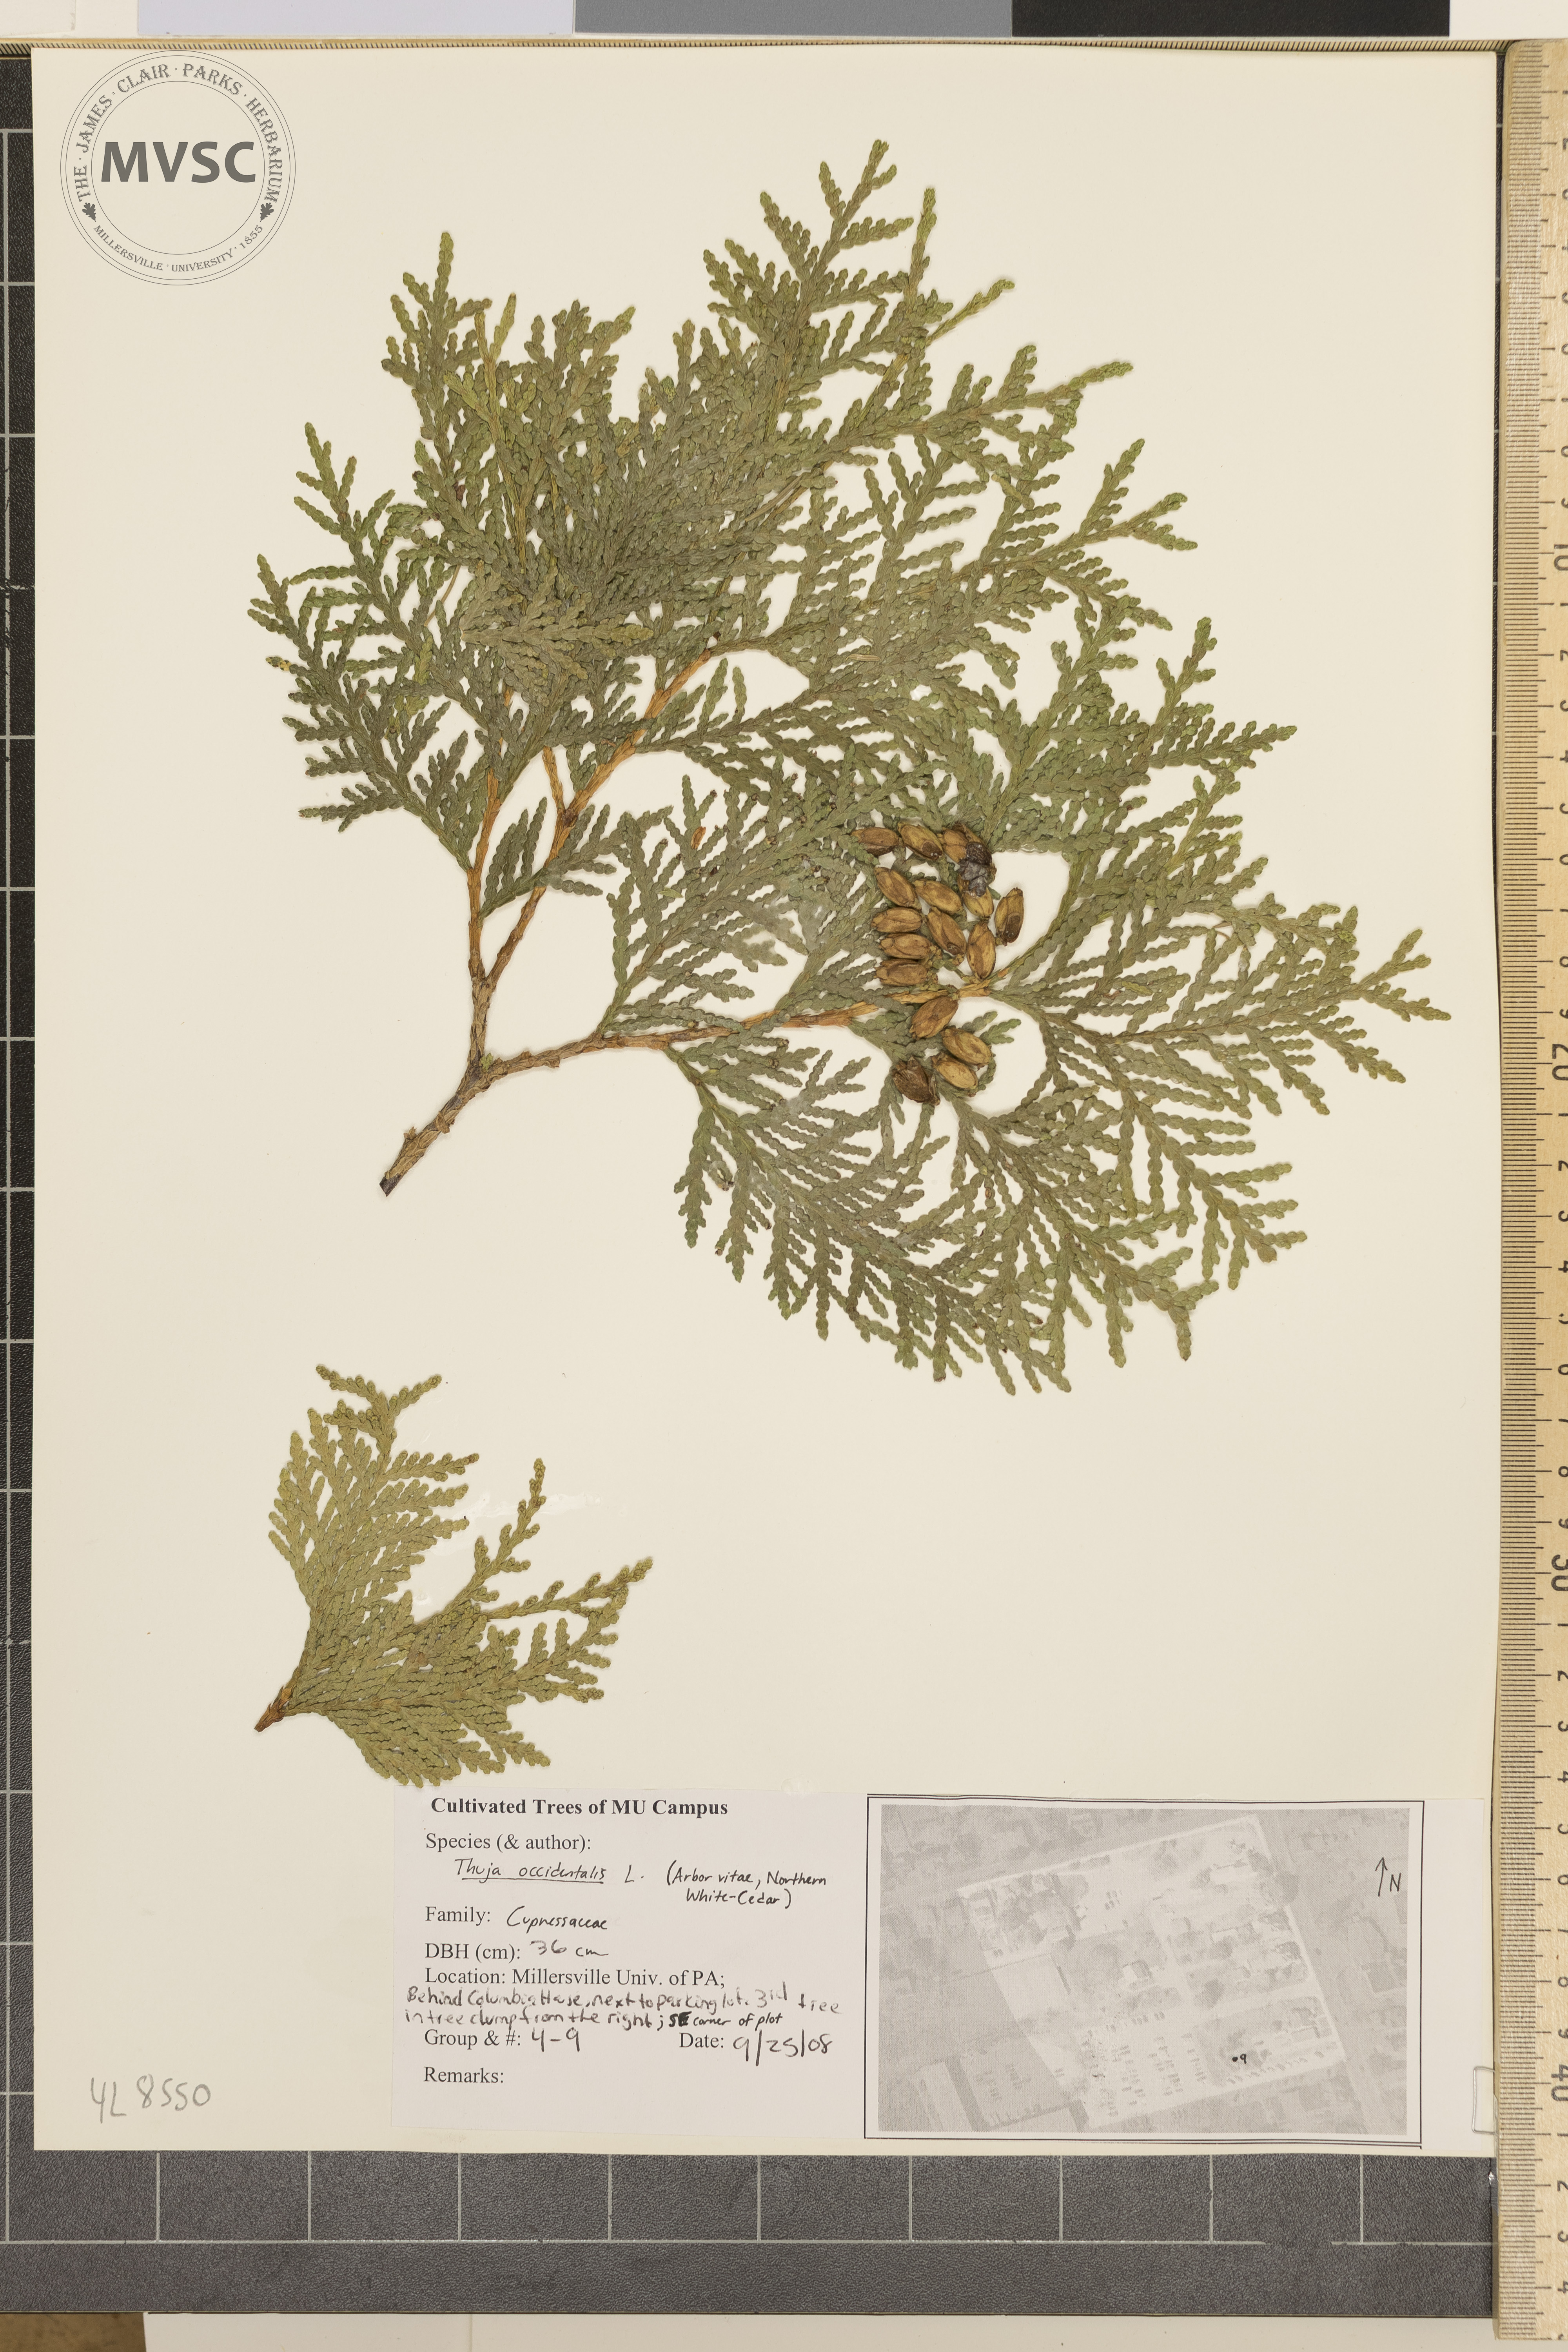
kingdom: Plantae
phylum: Tracheophyta
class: Pinopsida
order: Pinales
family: Cupressaceae
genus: Thuja
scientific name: Thuja occidentalis
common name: Arborvitae
